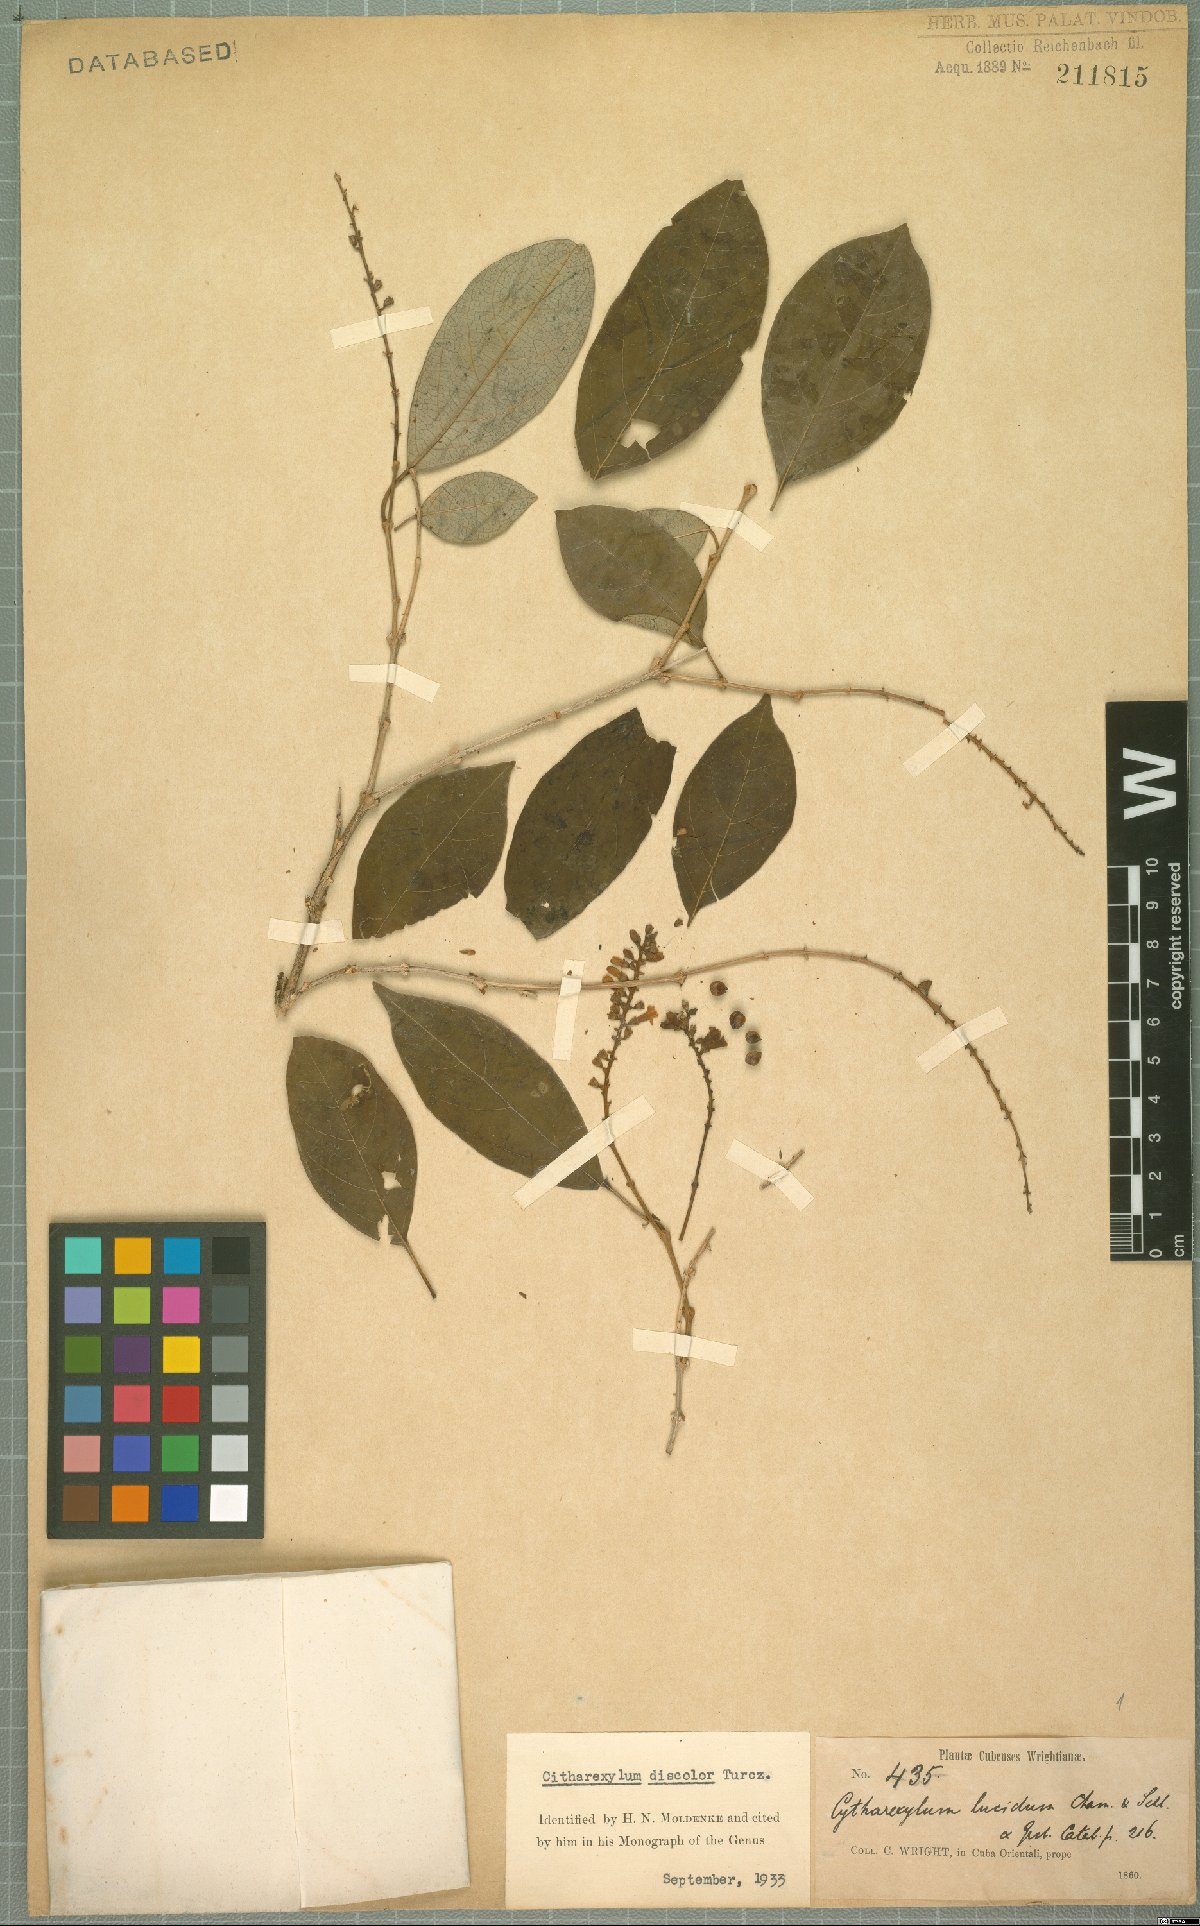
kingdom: Plantae
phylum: Tracheophyta
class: Magnoliopsida
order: Lamiales
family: Verbenaceae
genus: Citharexylum
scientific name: Citharexylum discolor
